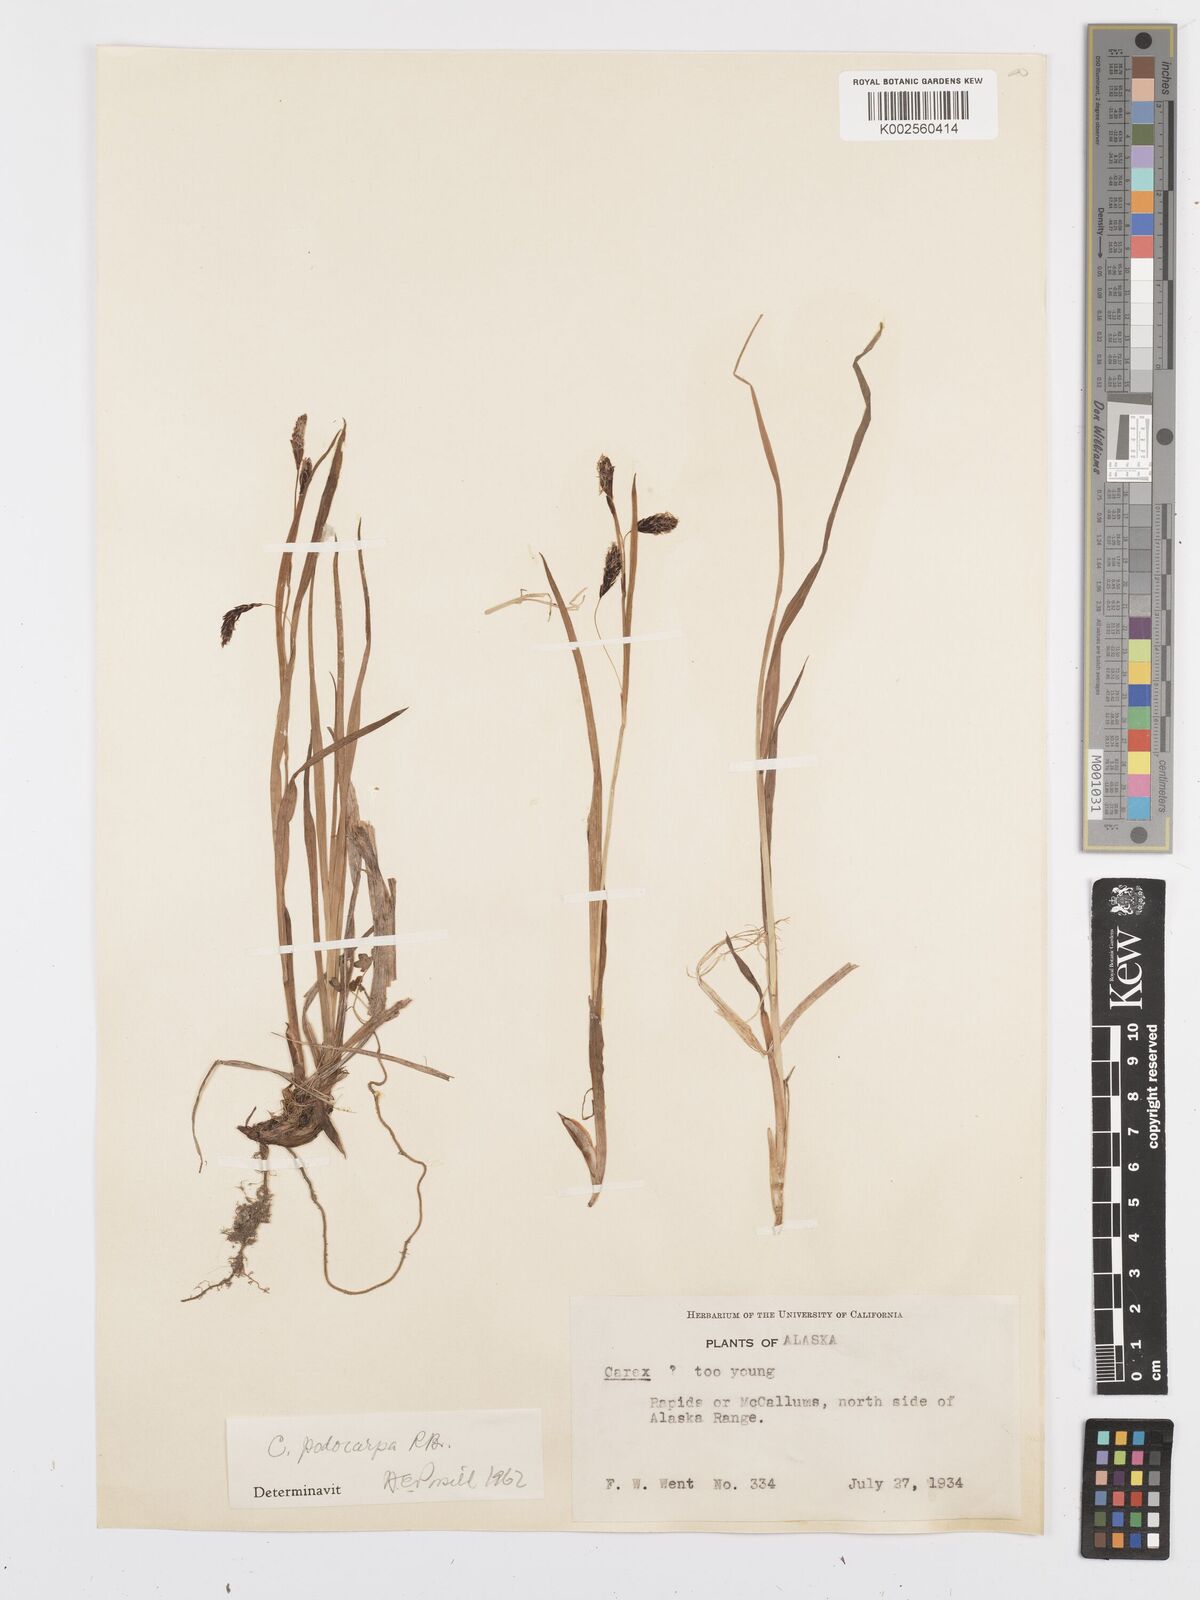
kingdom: Plantae
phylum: Tracheophyta
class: Liliopsida
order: Poales
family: Cyperaceae
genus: Carex
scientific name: Carex atrofusca
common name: Scorched alpine-sedge
